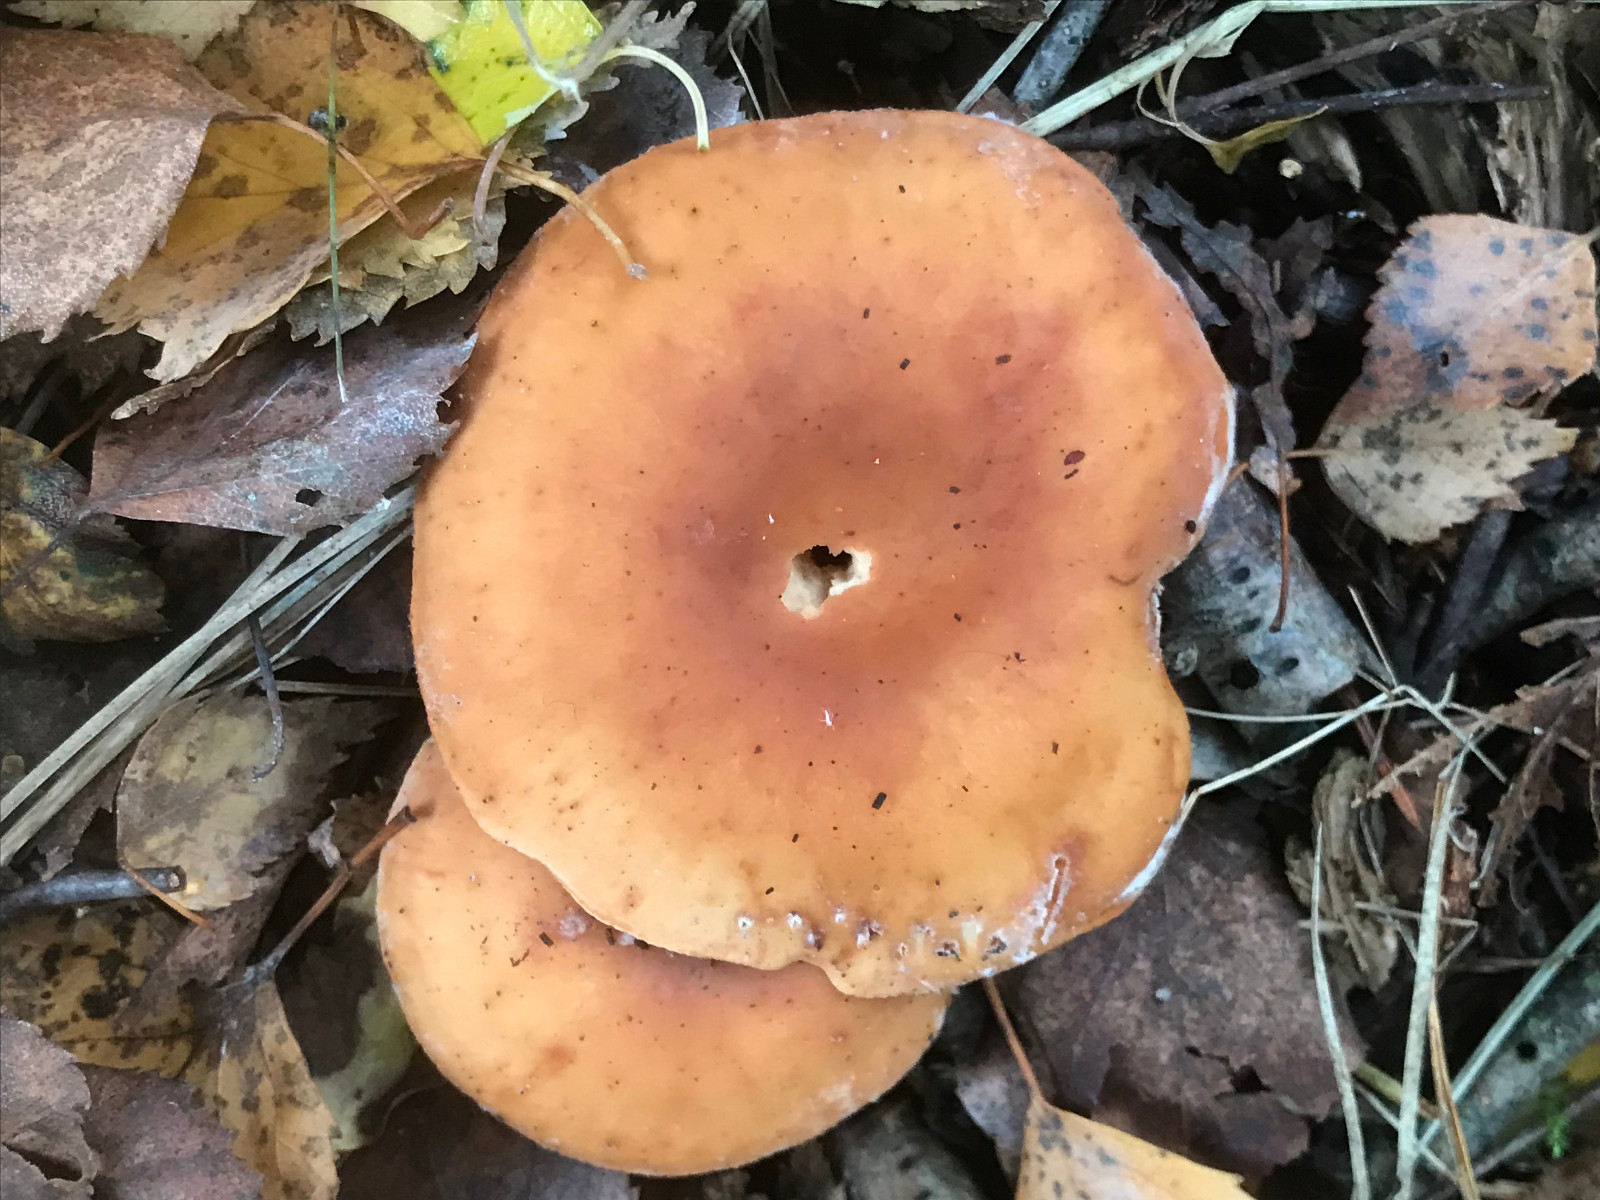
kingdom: Fungi
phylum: Basidiomycota
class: Agaricomycetes
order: Agaricales
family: Tricholomataceae
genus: Paralepista
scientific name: Paralepista flaccida
